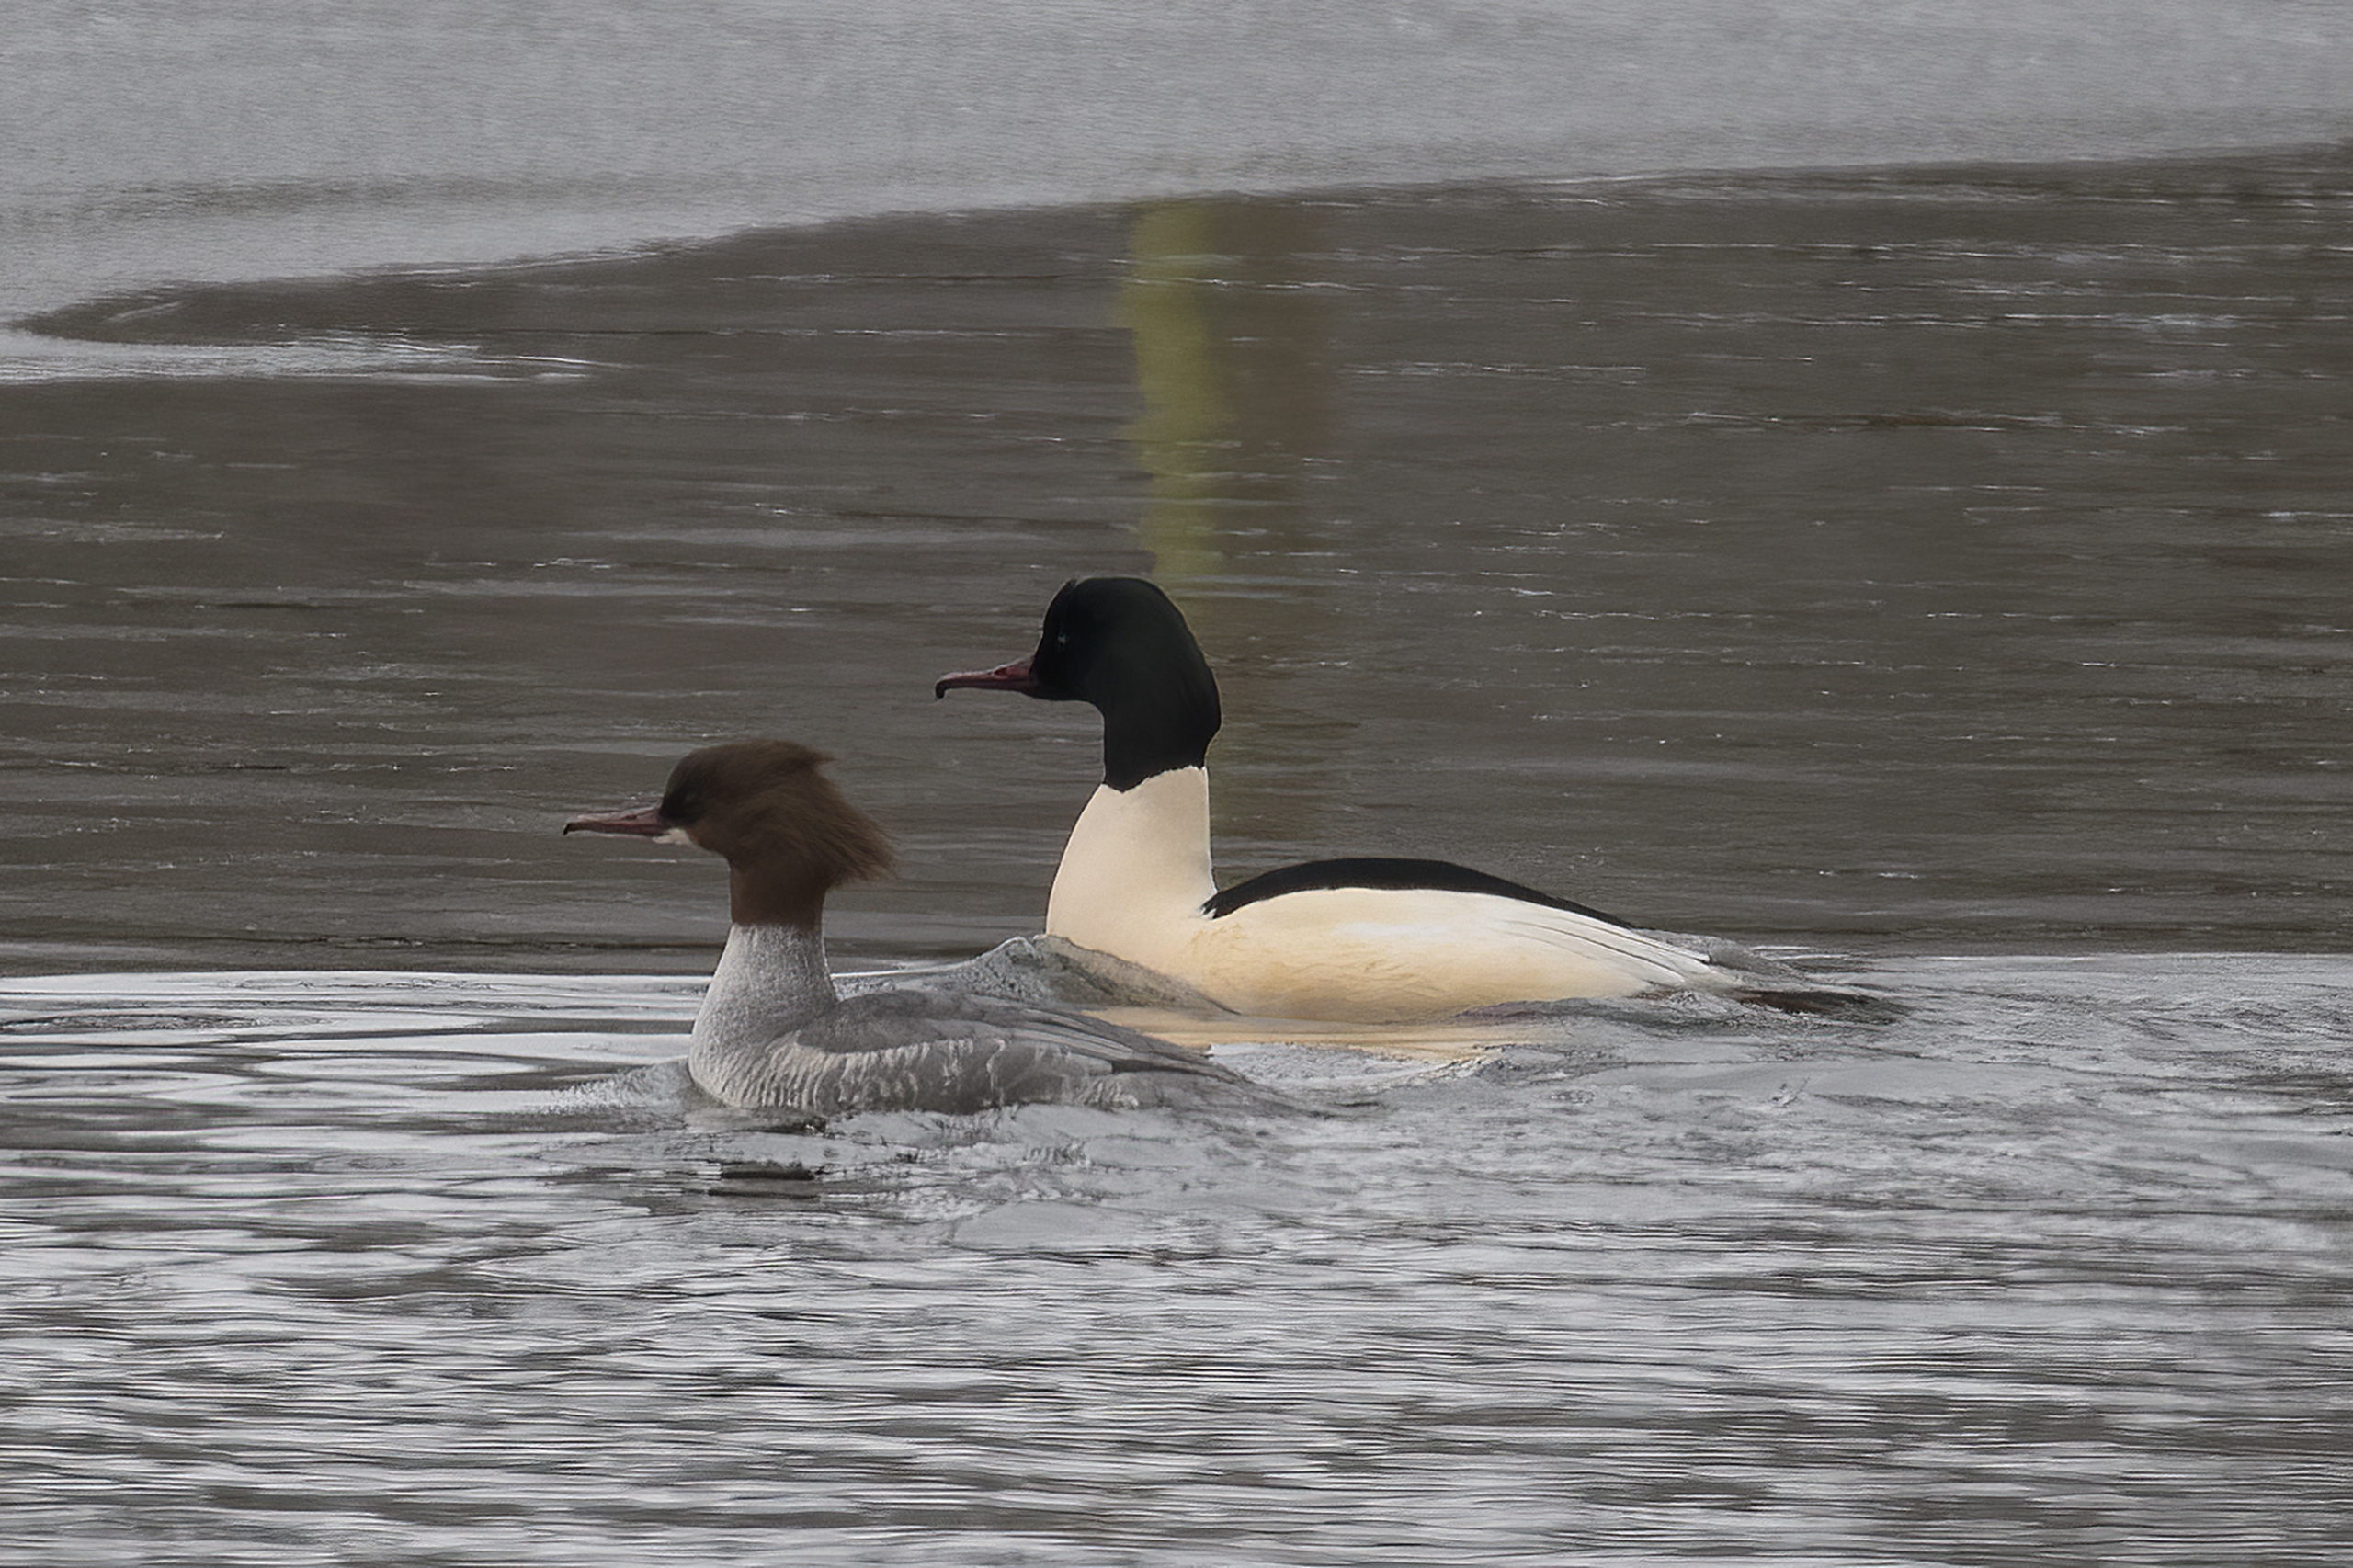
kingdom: Animalia
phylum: Chordata
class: Aves
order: Anseriformes
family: Anatidae
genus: Mergus
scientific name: Mergus merganser
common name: Stor skallesluger
